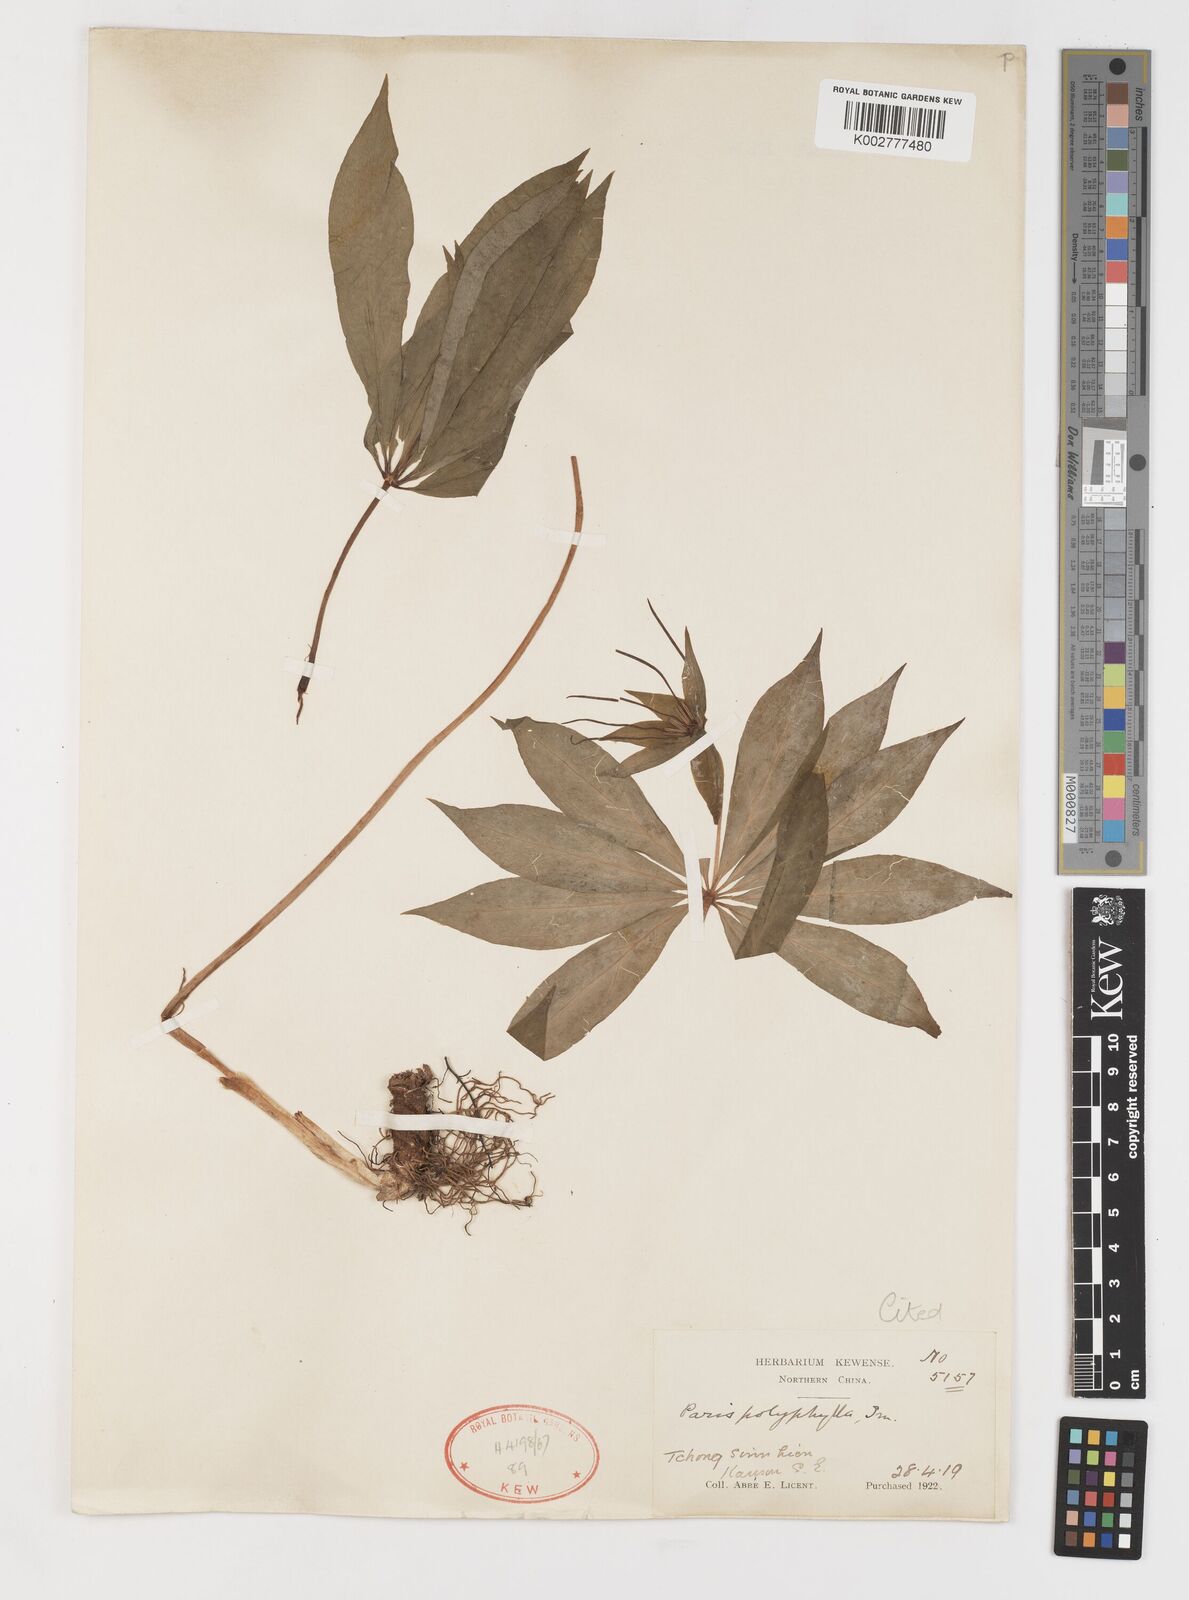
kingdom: Plantae
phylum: Tracheophyta
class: Liliopsida
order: Liliales
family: Melanthiaceae
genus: Paris
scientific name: Paris lancifolia
